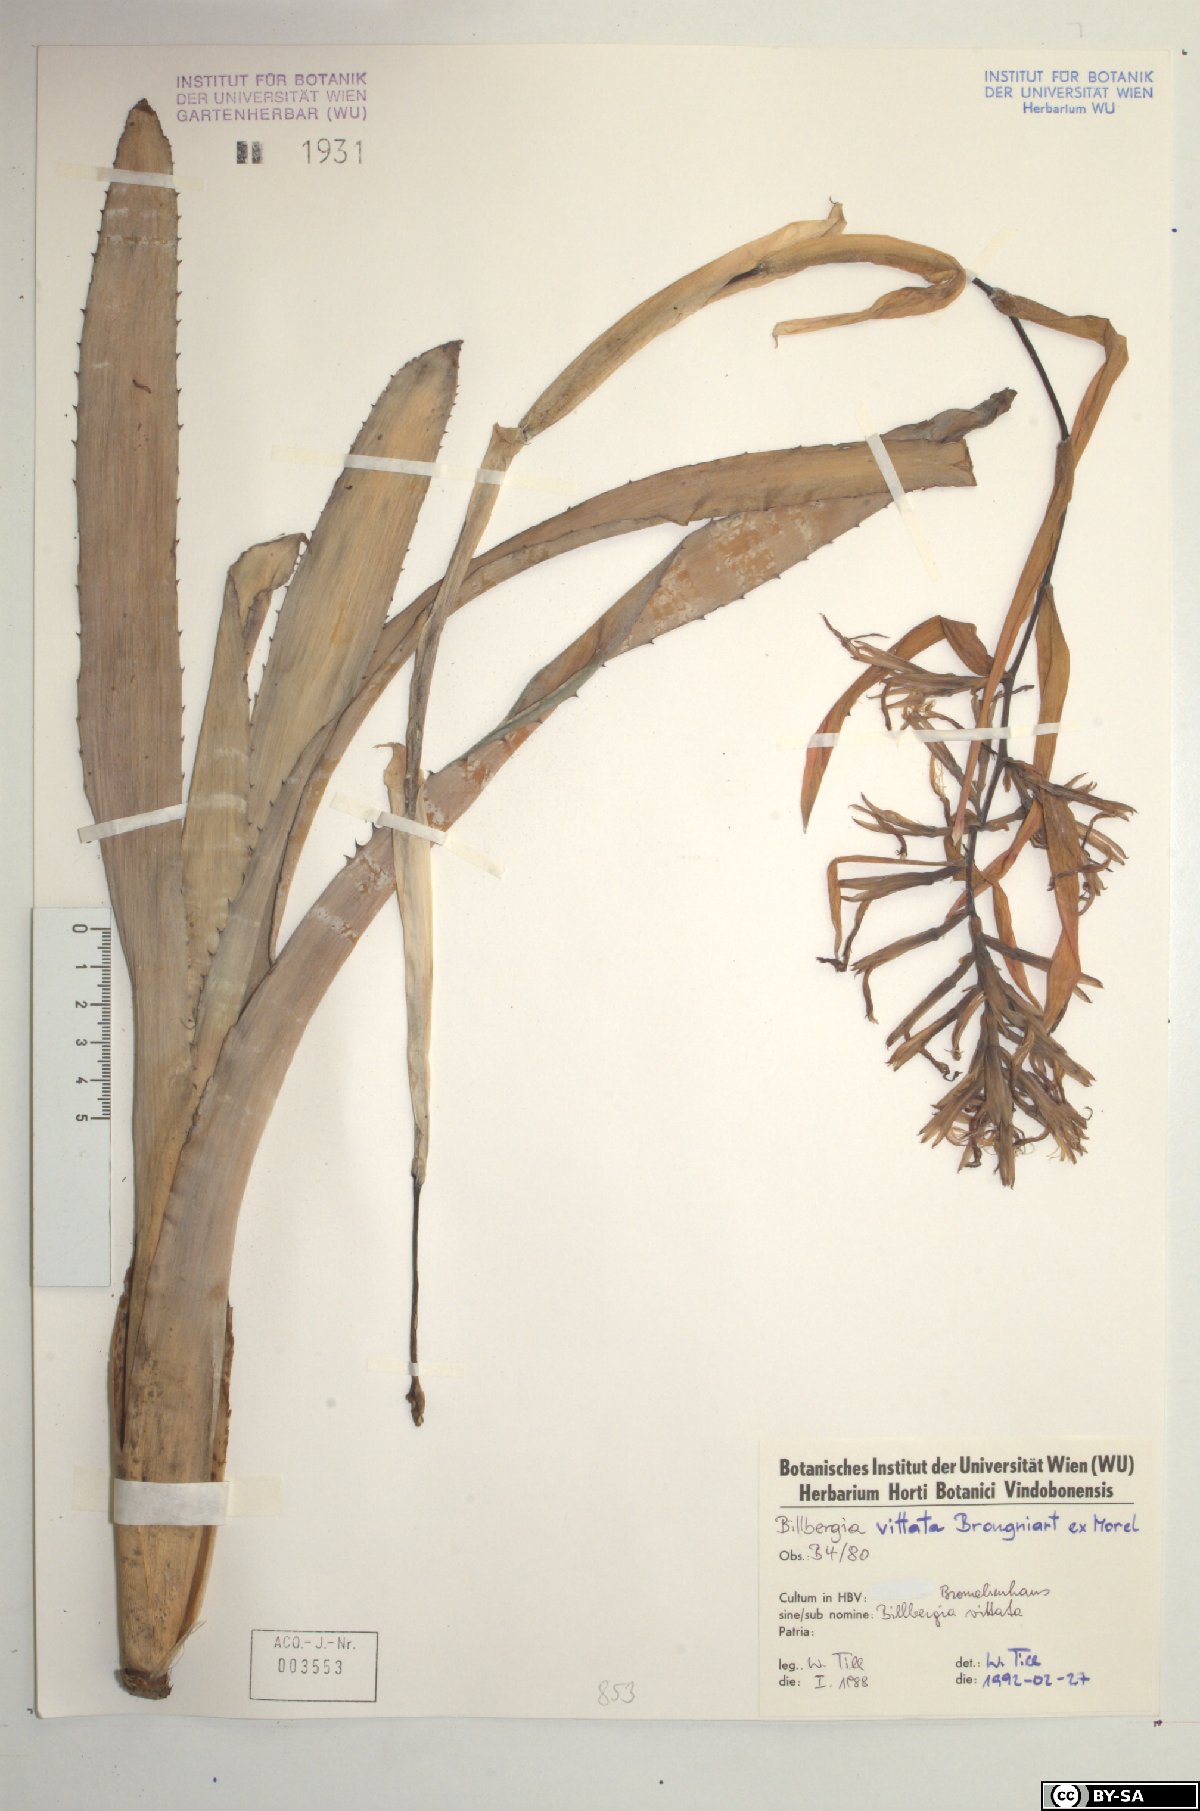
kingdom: Plantae
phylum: Tracheophyta
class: Liliopsida
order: Poales
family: Bromeliaceae
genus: Billbergia
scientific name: Billbergia vittata
